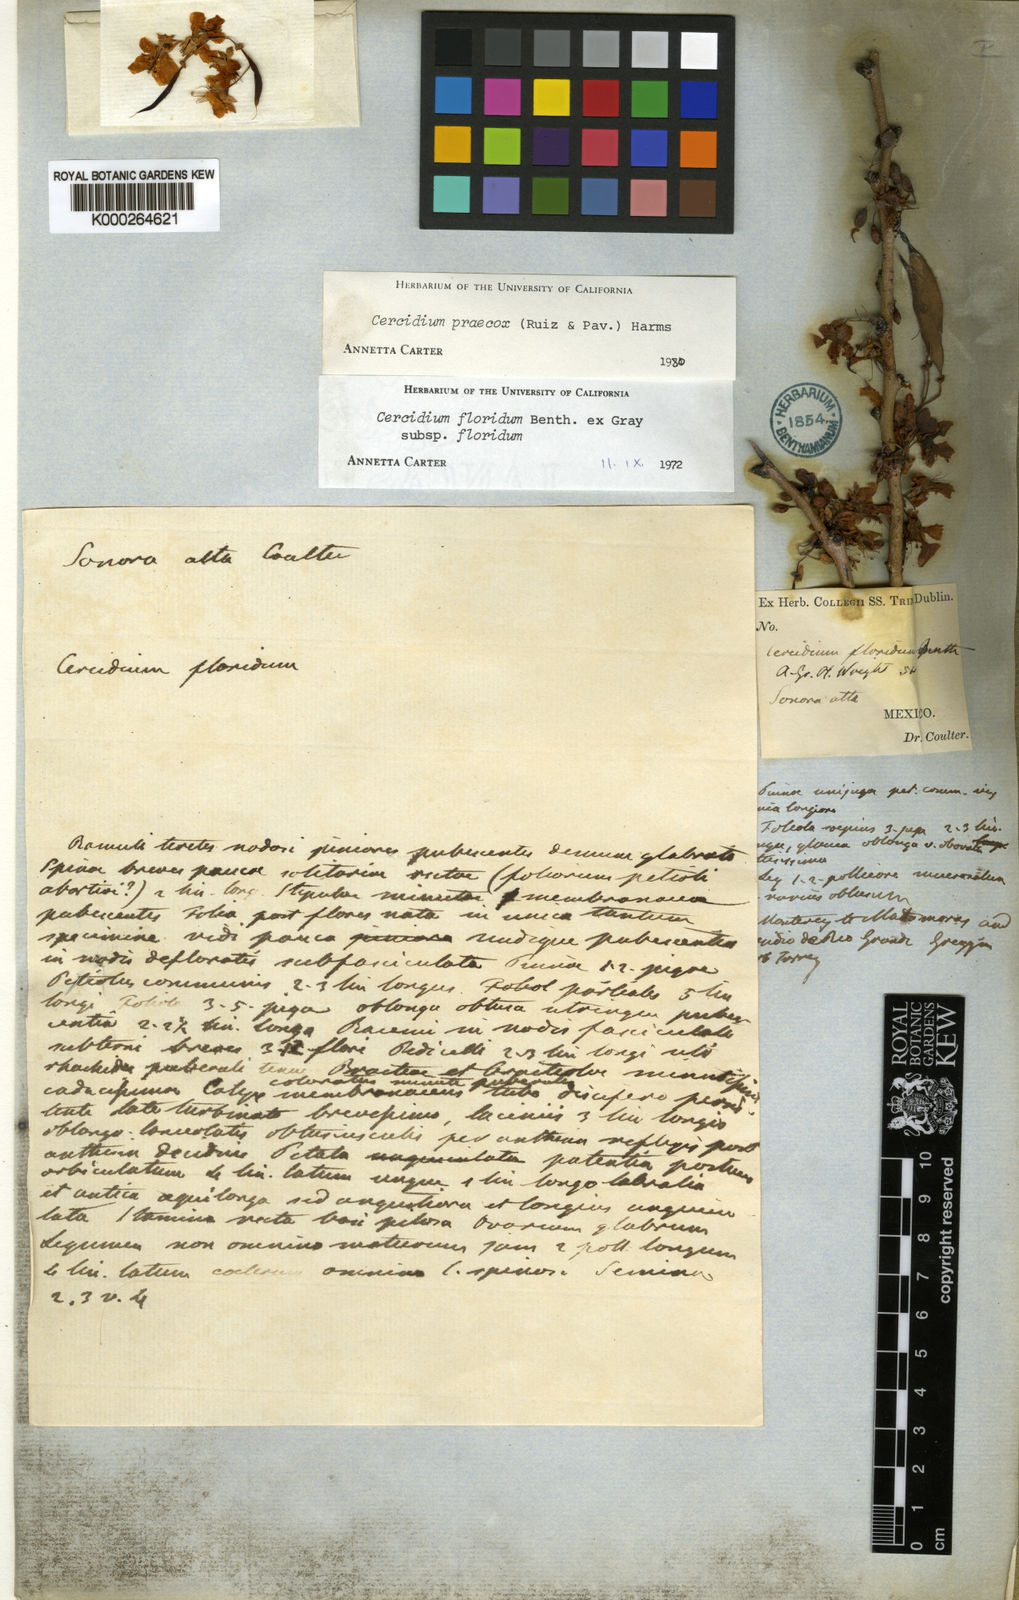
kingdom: Plantae
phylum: Tracheophyta
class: Magnoliopsida
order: Fabales
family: Fabaceae
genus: Parkinsonia
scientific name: Parkinsonia florida
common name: Blue paloverde
